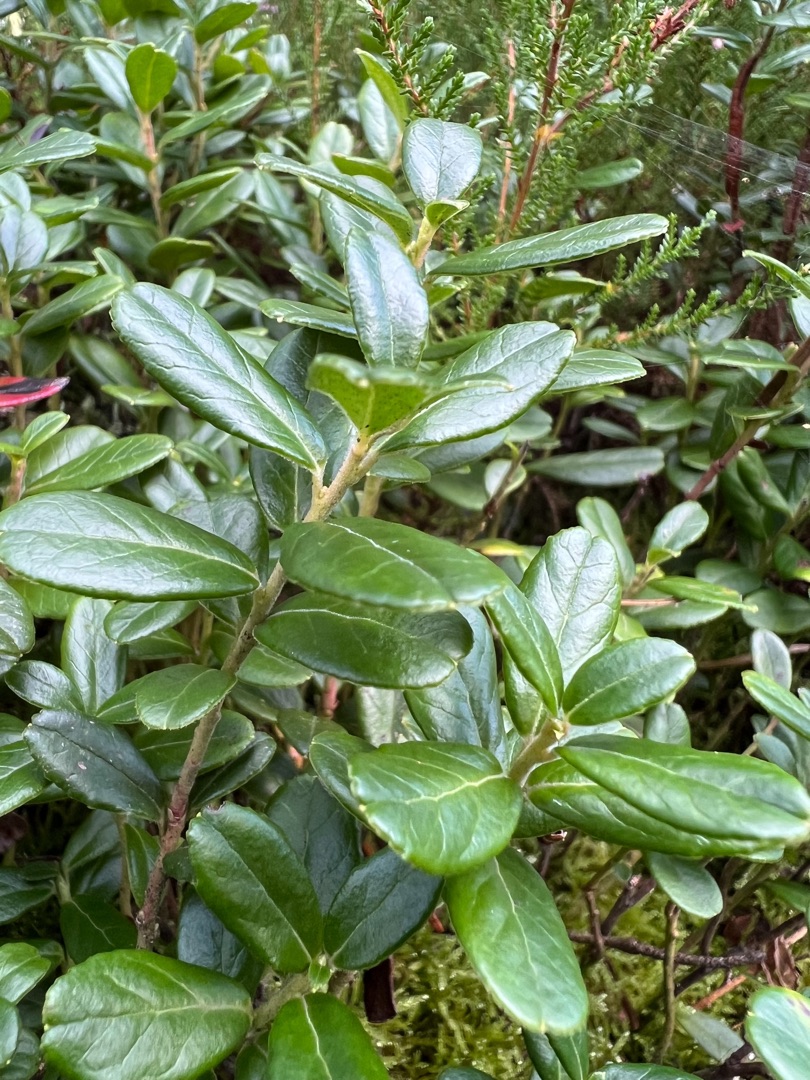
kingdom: Plantae
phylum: Tracheophyta
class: Magnoliopsida
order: Ericales
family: Ericaceae
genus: Vaccinium
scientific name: Vaccinium vitis-idaea
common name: Tyttebær
